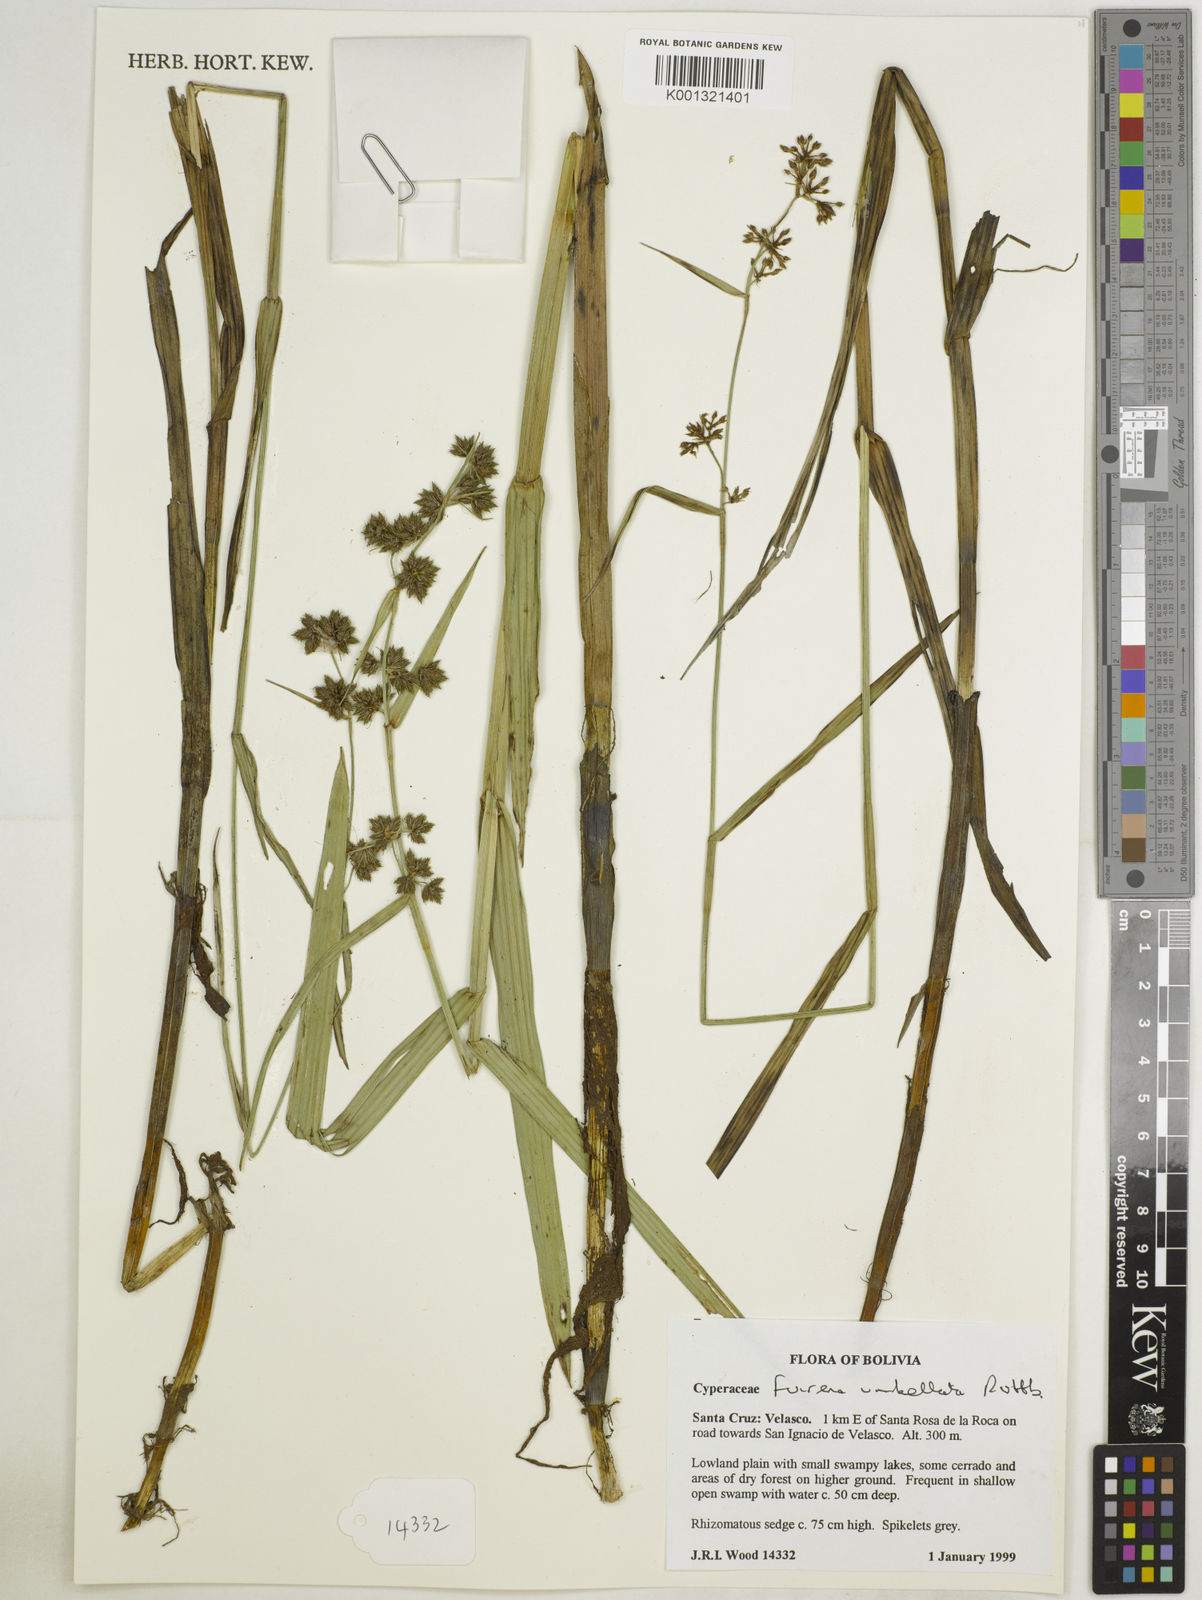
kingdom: Plantae
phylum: Tracheophyta
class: Liliopsida
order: Poales
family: Cyperaceae
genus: Fuirena
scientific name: Fuirena umbellata
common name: Yefen
